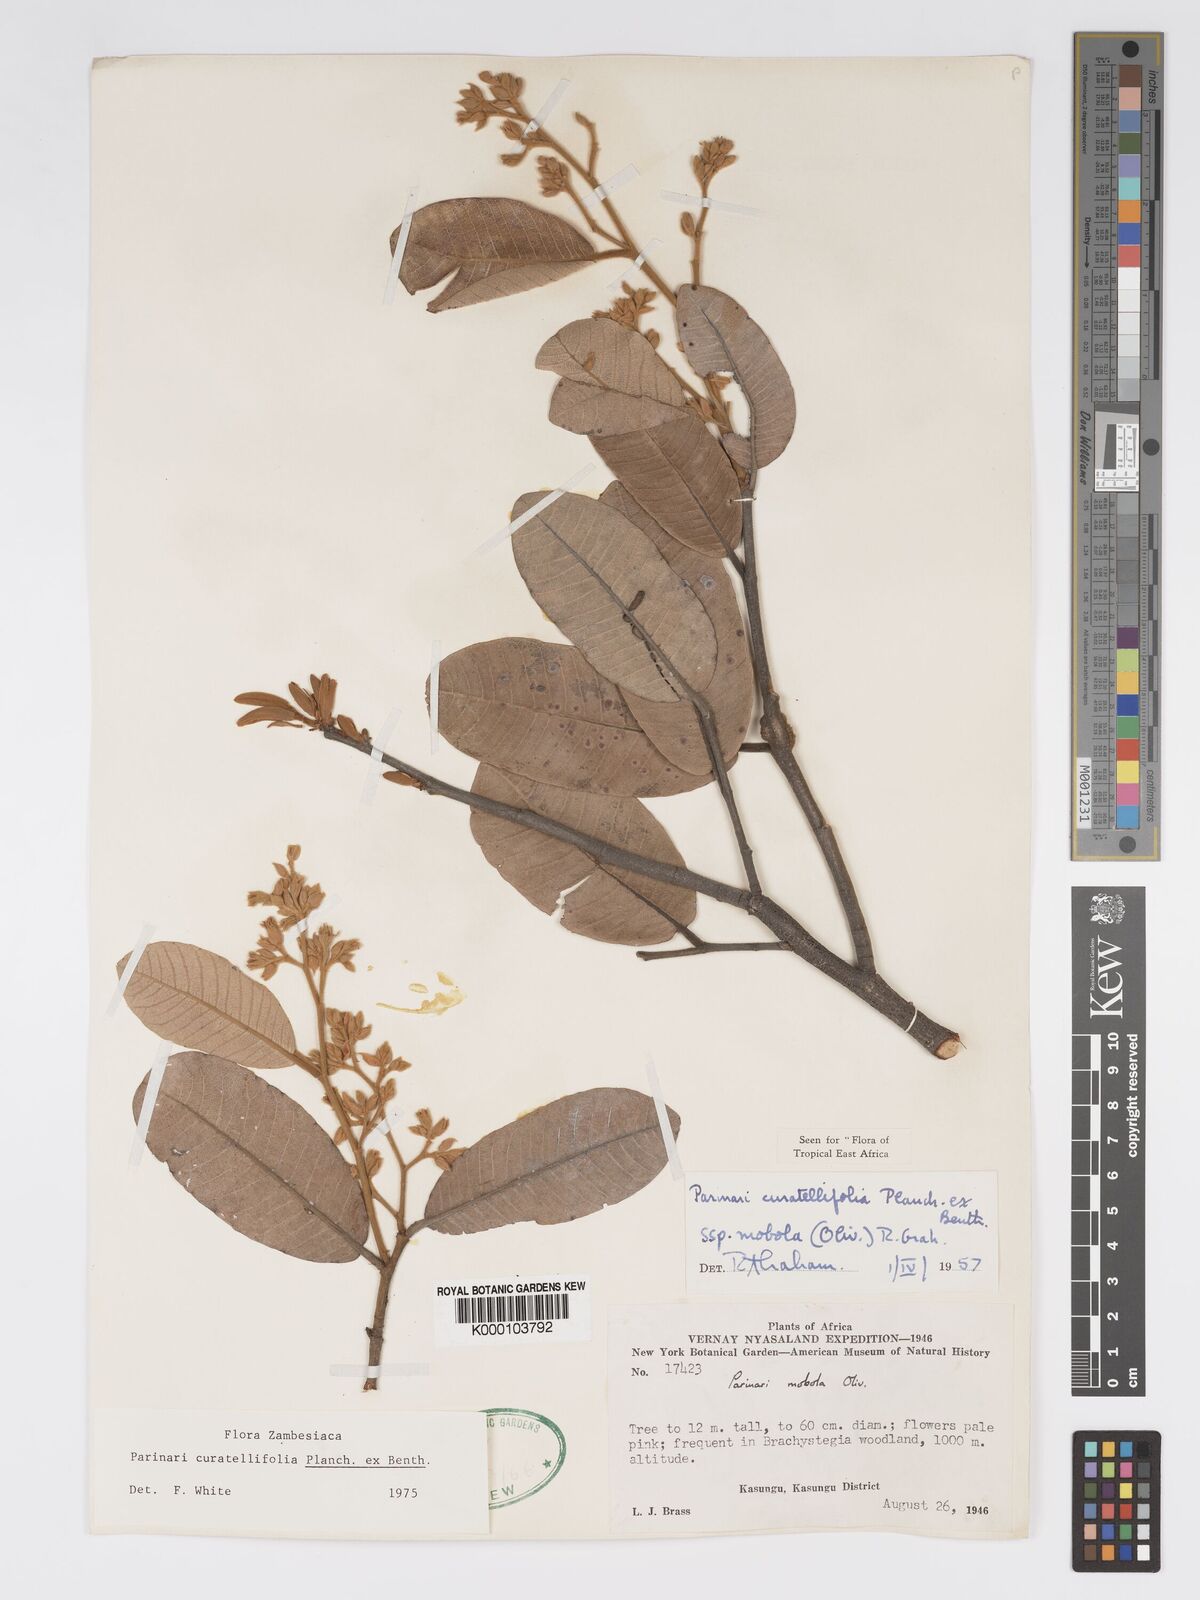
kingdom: Plantae
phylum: Tracheophyta
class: Magnoliopsida
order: Malpighiales
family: Chrysobalanaceae
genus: Parinari
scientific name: Parinari curatellifolia
